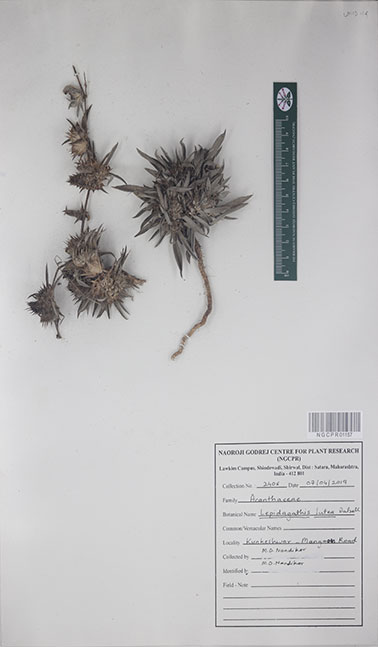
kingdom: Plantae
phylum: Tracheophyta
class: Magnoliopsida
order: Lamiales
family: Acanthaceae
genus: Lepidagathis
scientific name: Lepidagathis lutea
